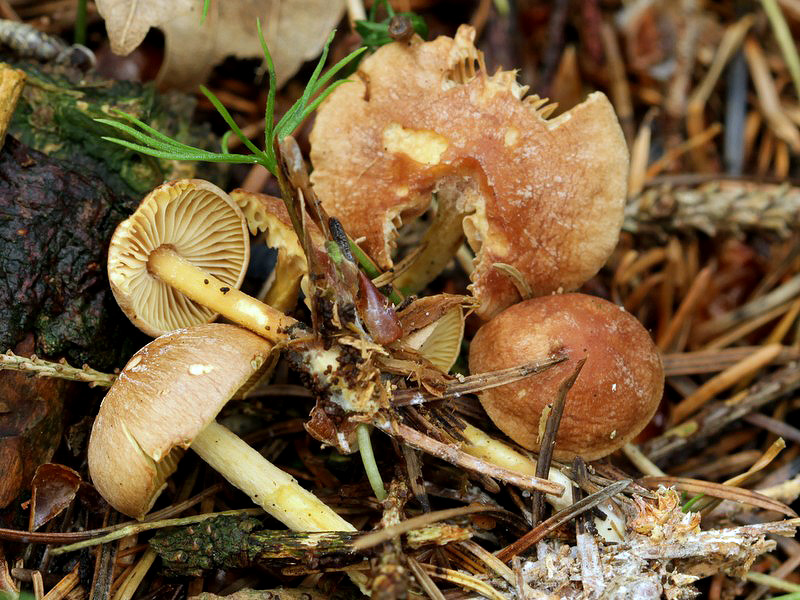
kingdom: Fungi
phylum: Basidiomycota
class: Agaricomycetes
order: Agaricales
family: Omphalotaceae
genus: Collybiopsis
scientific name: Collybiopsis peronata
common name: bestøvlet fladhat
